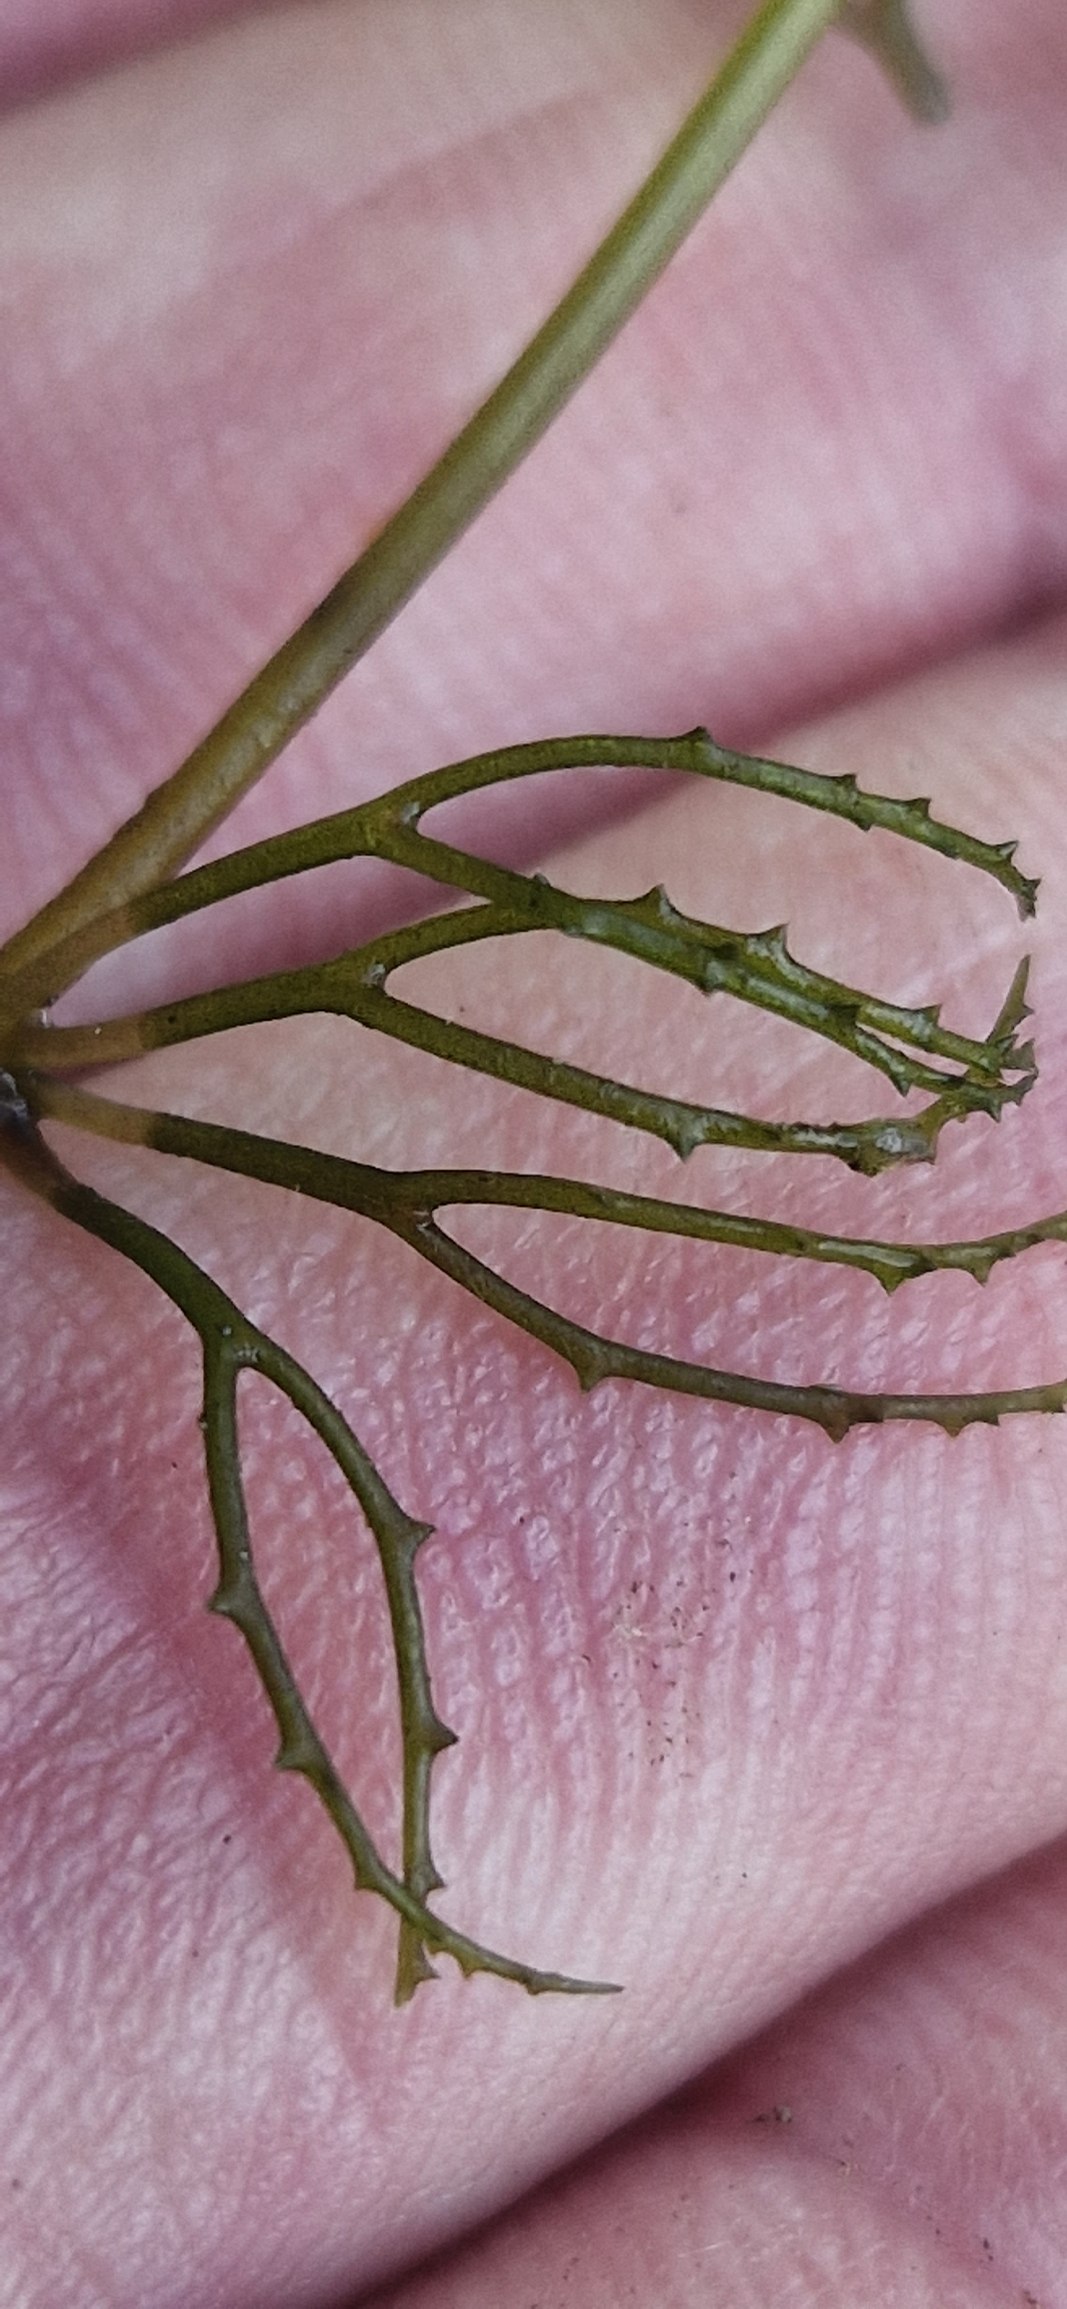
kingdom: Plantae
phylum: Tracheophyta
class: Magnoliopsida
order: Ceratophyllales
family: Ceratophyllaceae
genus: Ceratophyllum
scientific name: Ceratophyllum demersum
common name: Tornfrøet hornblad
